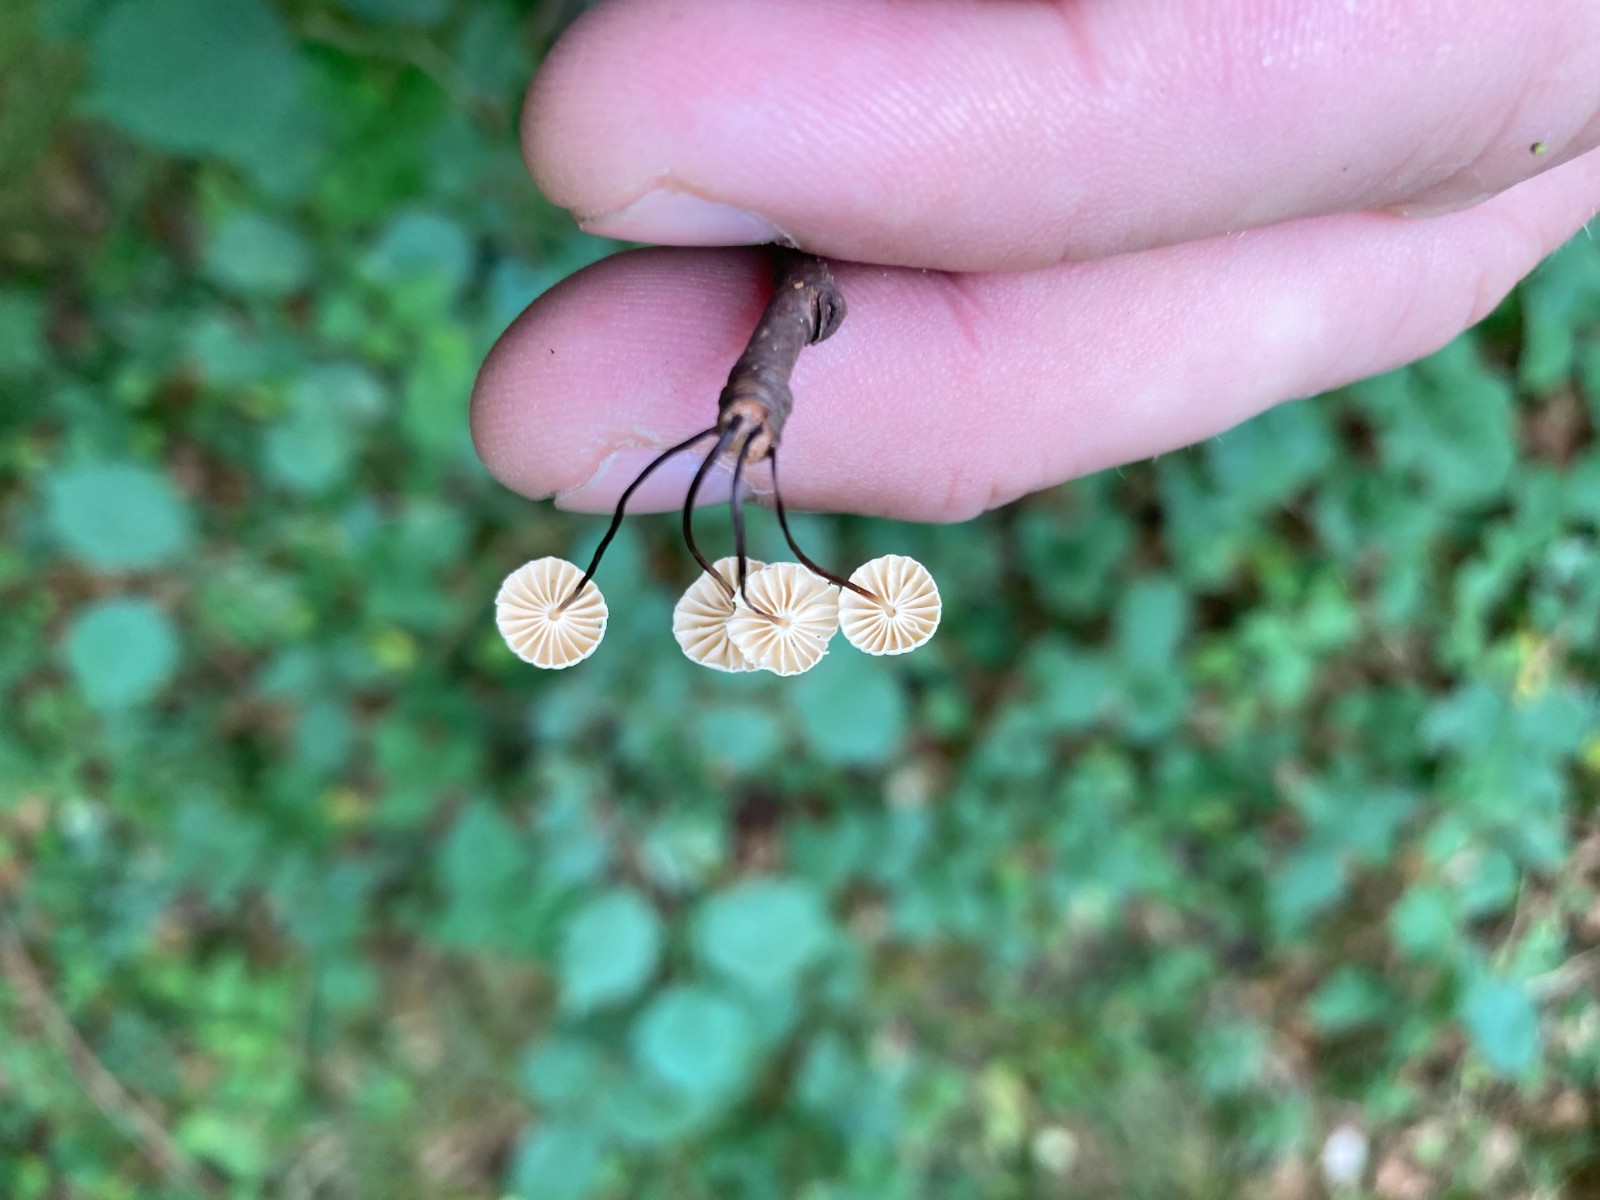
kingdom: Fungi
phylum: Basidiomycota
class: Agaricomycetes
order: Agaricales
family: Marasmiaceae
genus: Marasmius
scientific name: Marasmius rotula
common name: hjul-bruskhat
